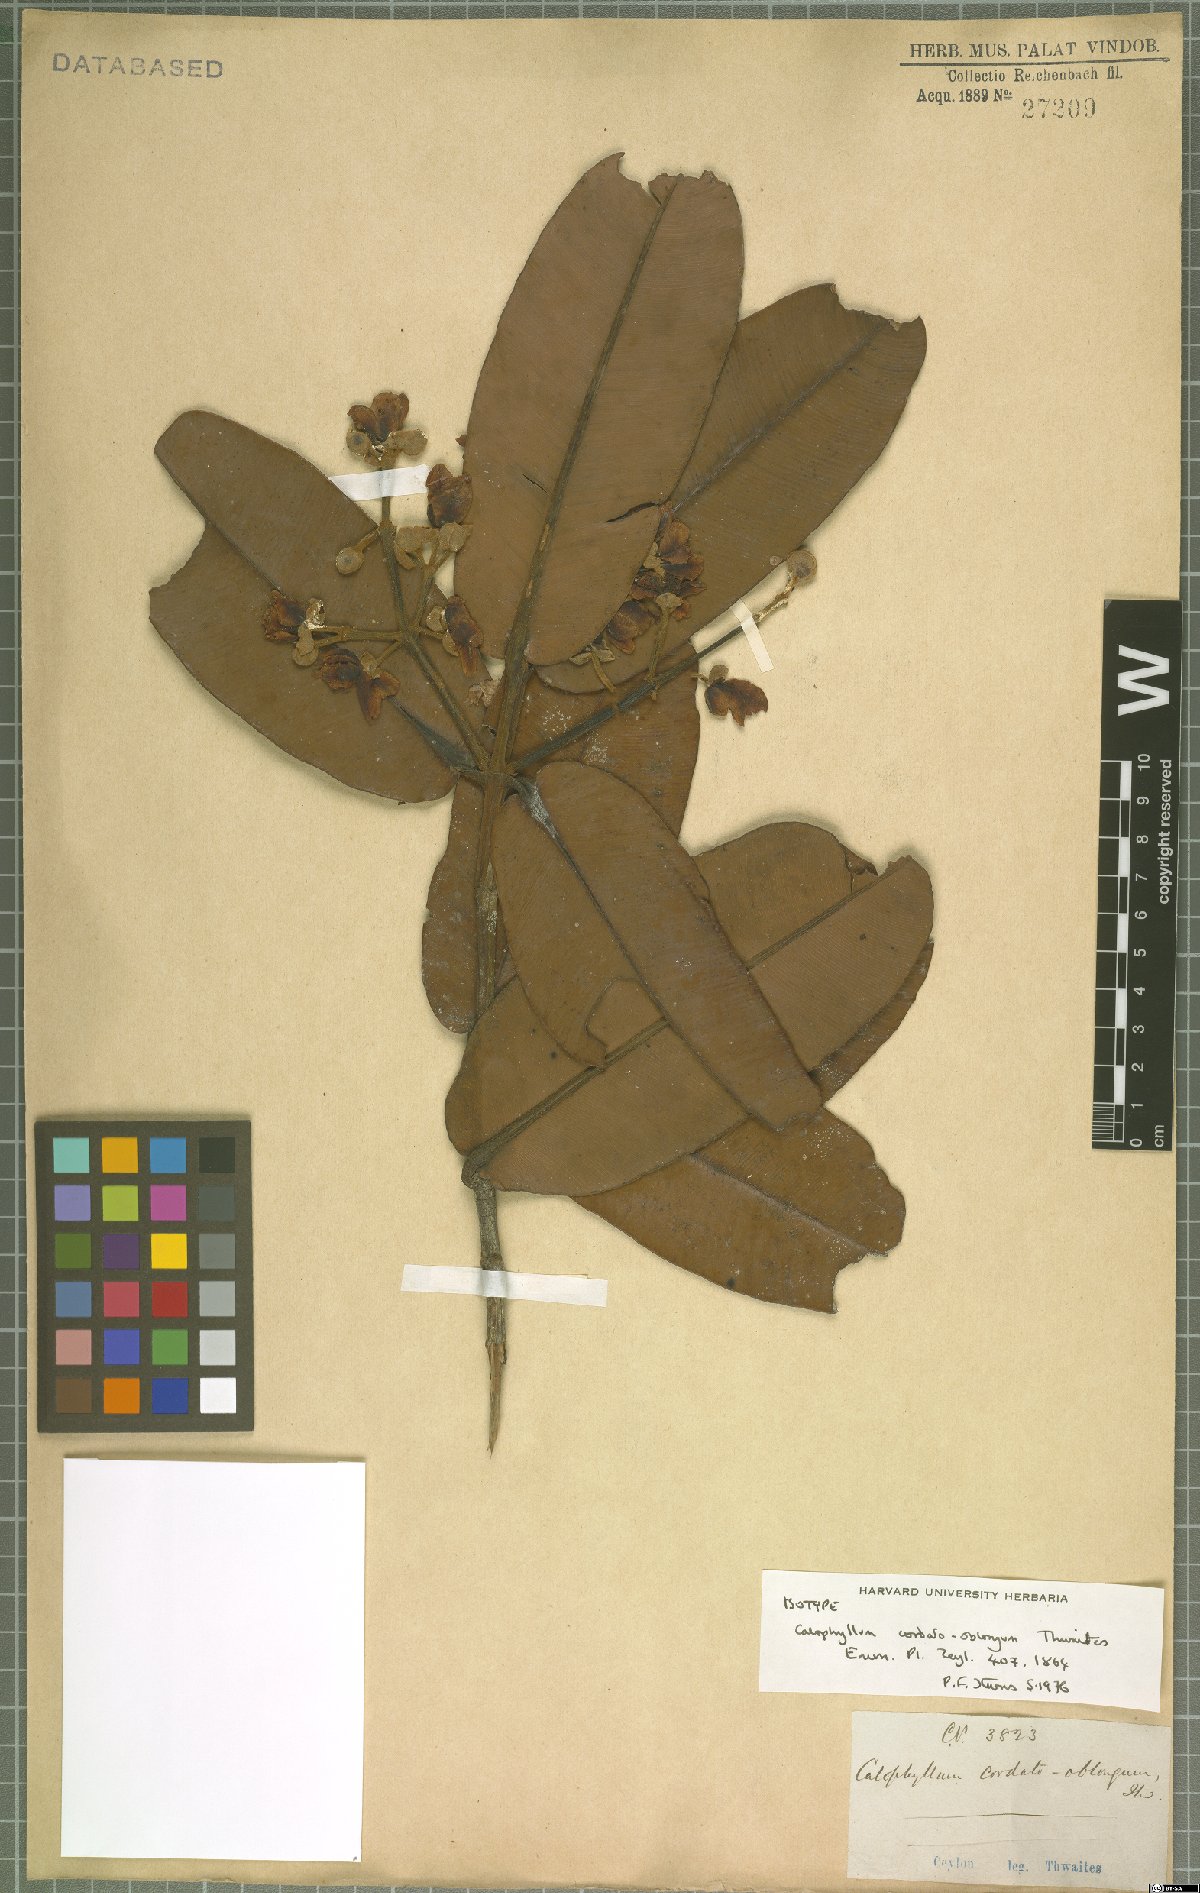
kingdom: Plantae
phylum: Tracheophyta
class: Magnoliopsida
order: Malpighiales
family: Calophyllaceae
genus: Calophyllum
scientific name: Calophyllum cordato-oblongum
